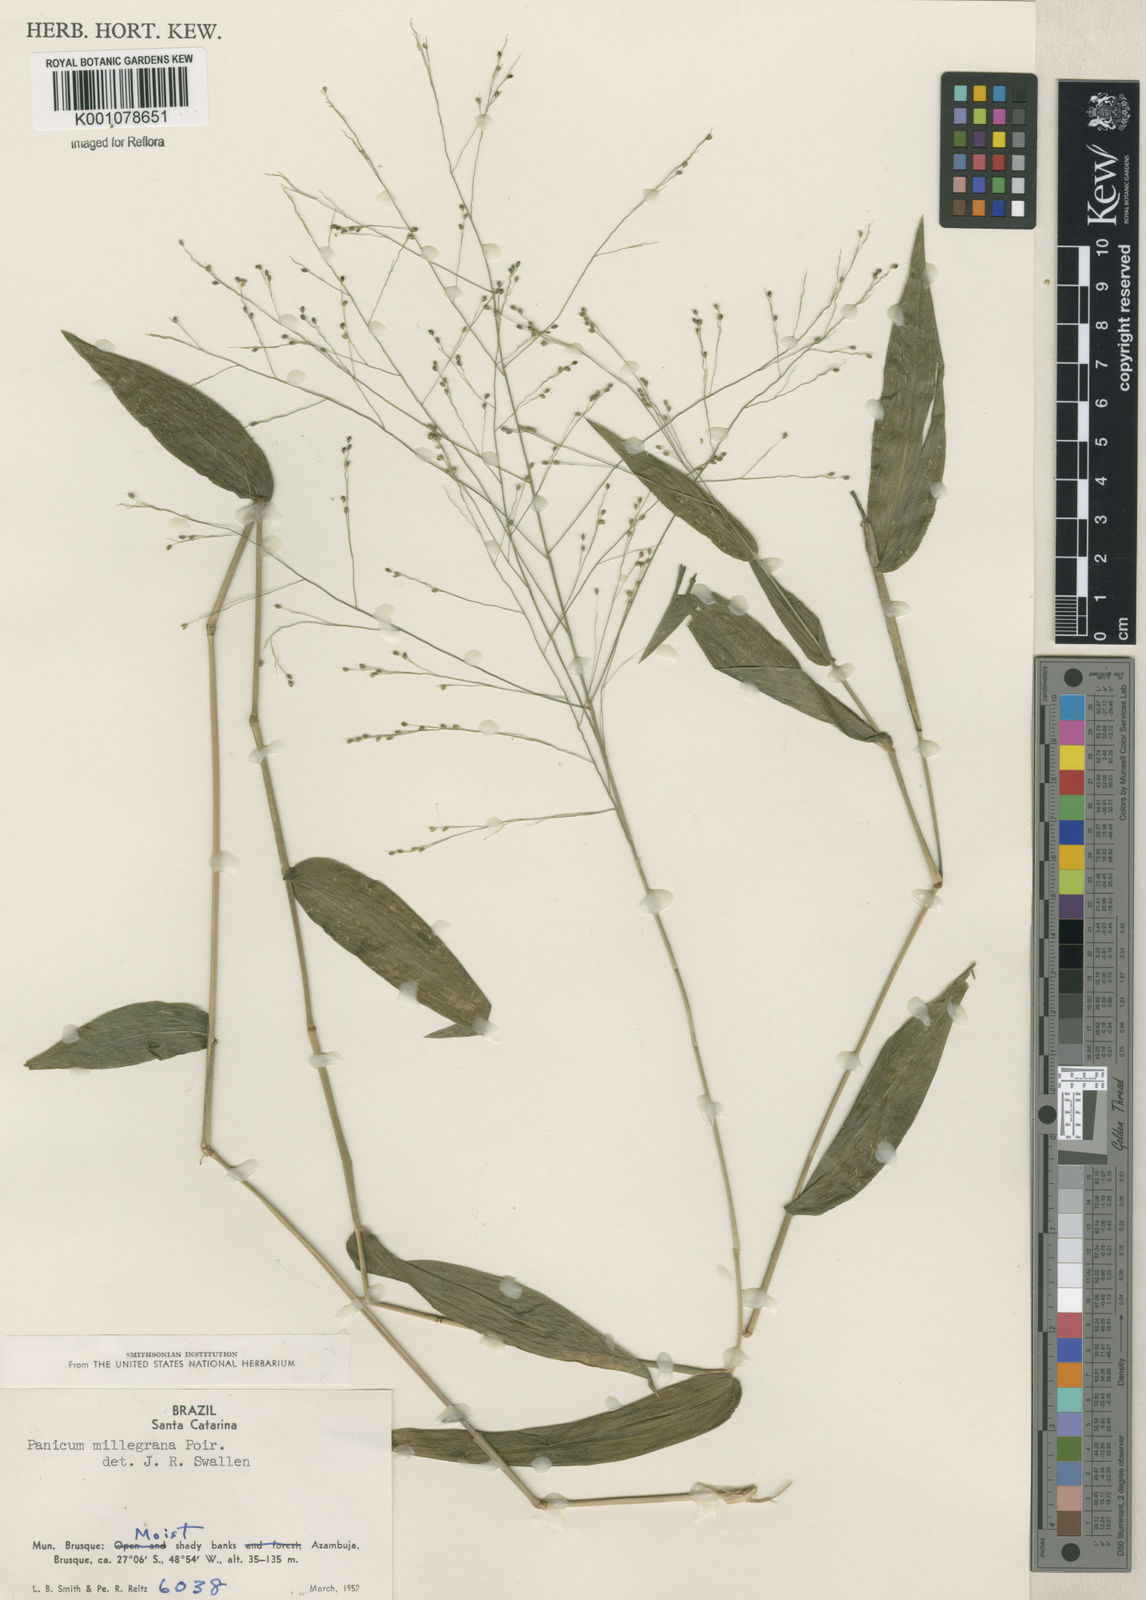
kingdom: Plantae
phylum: Tracheophyta
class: Liliopsida
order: Poales
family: Poaceae
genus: Panicum
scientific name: Panicum millegrana
